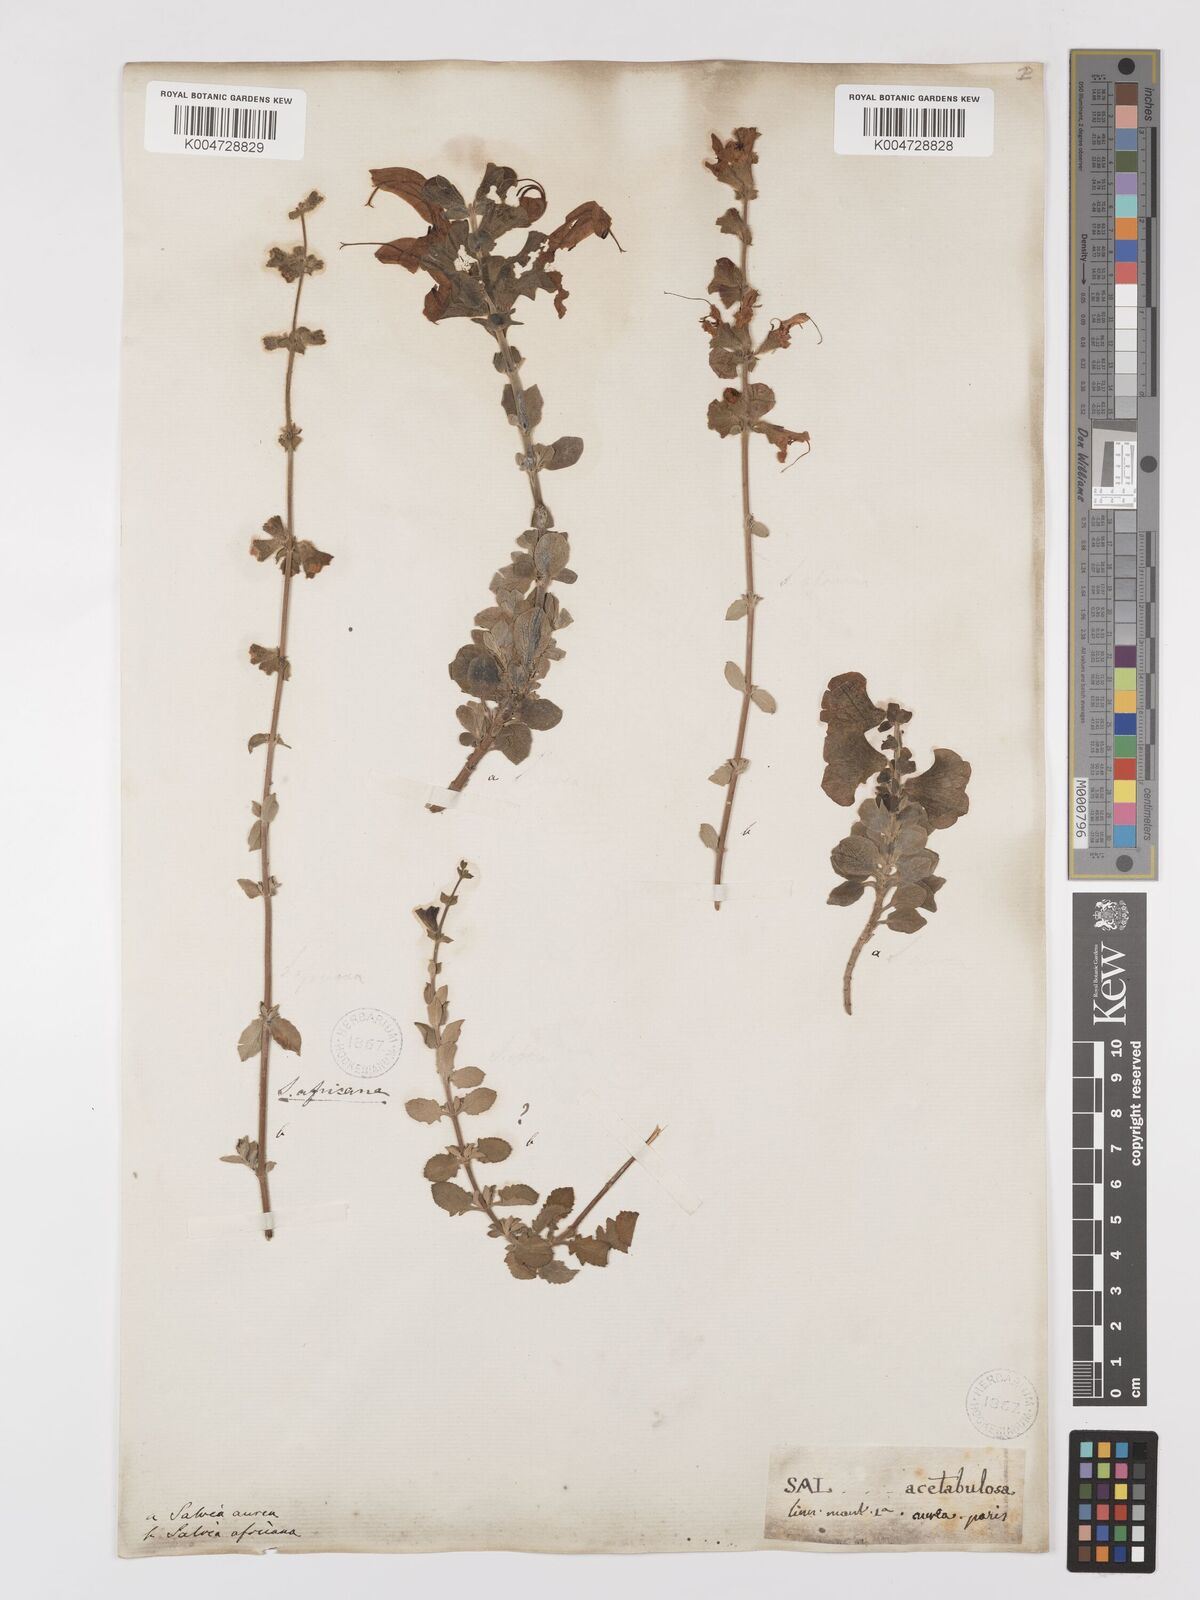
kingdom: Plantae
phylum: Tracheophyta
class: Magnoliopsida
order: Lamiales
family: Lamiaceae
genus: Salvia
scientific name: Salvia aurea
